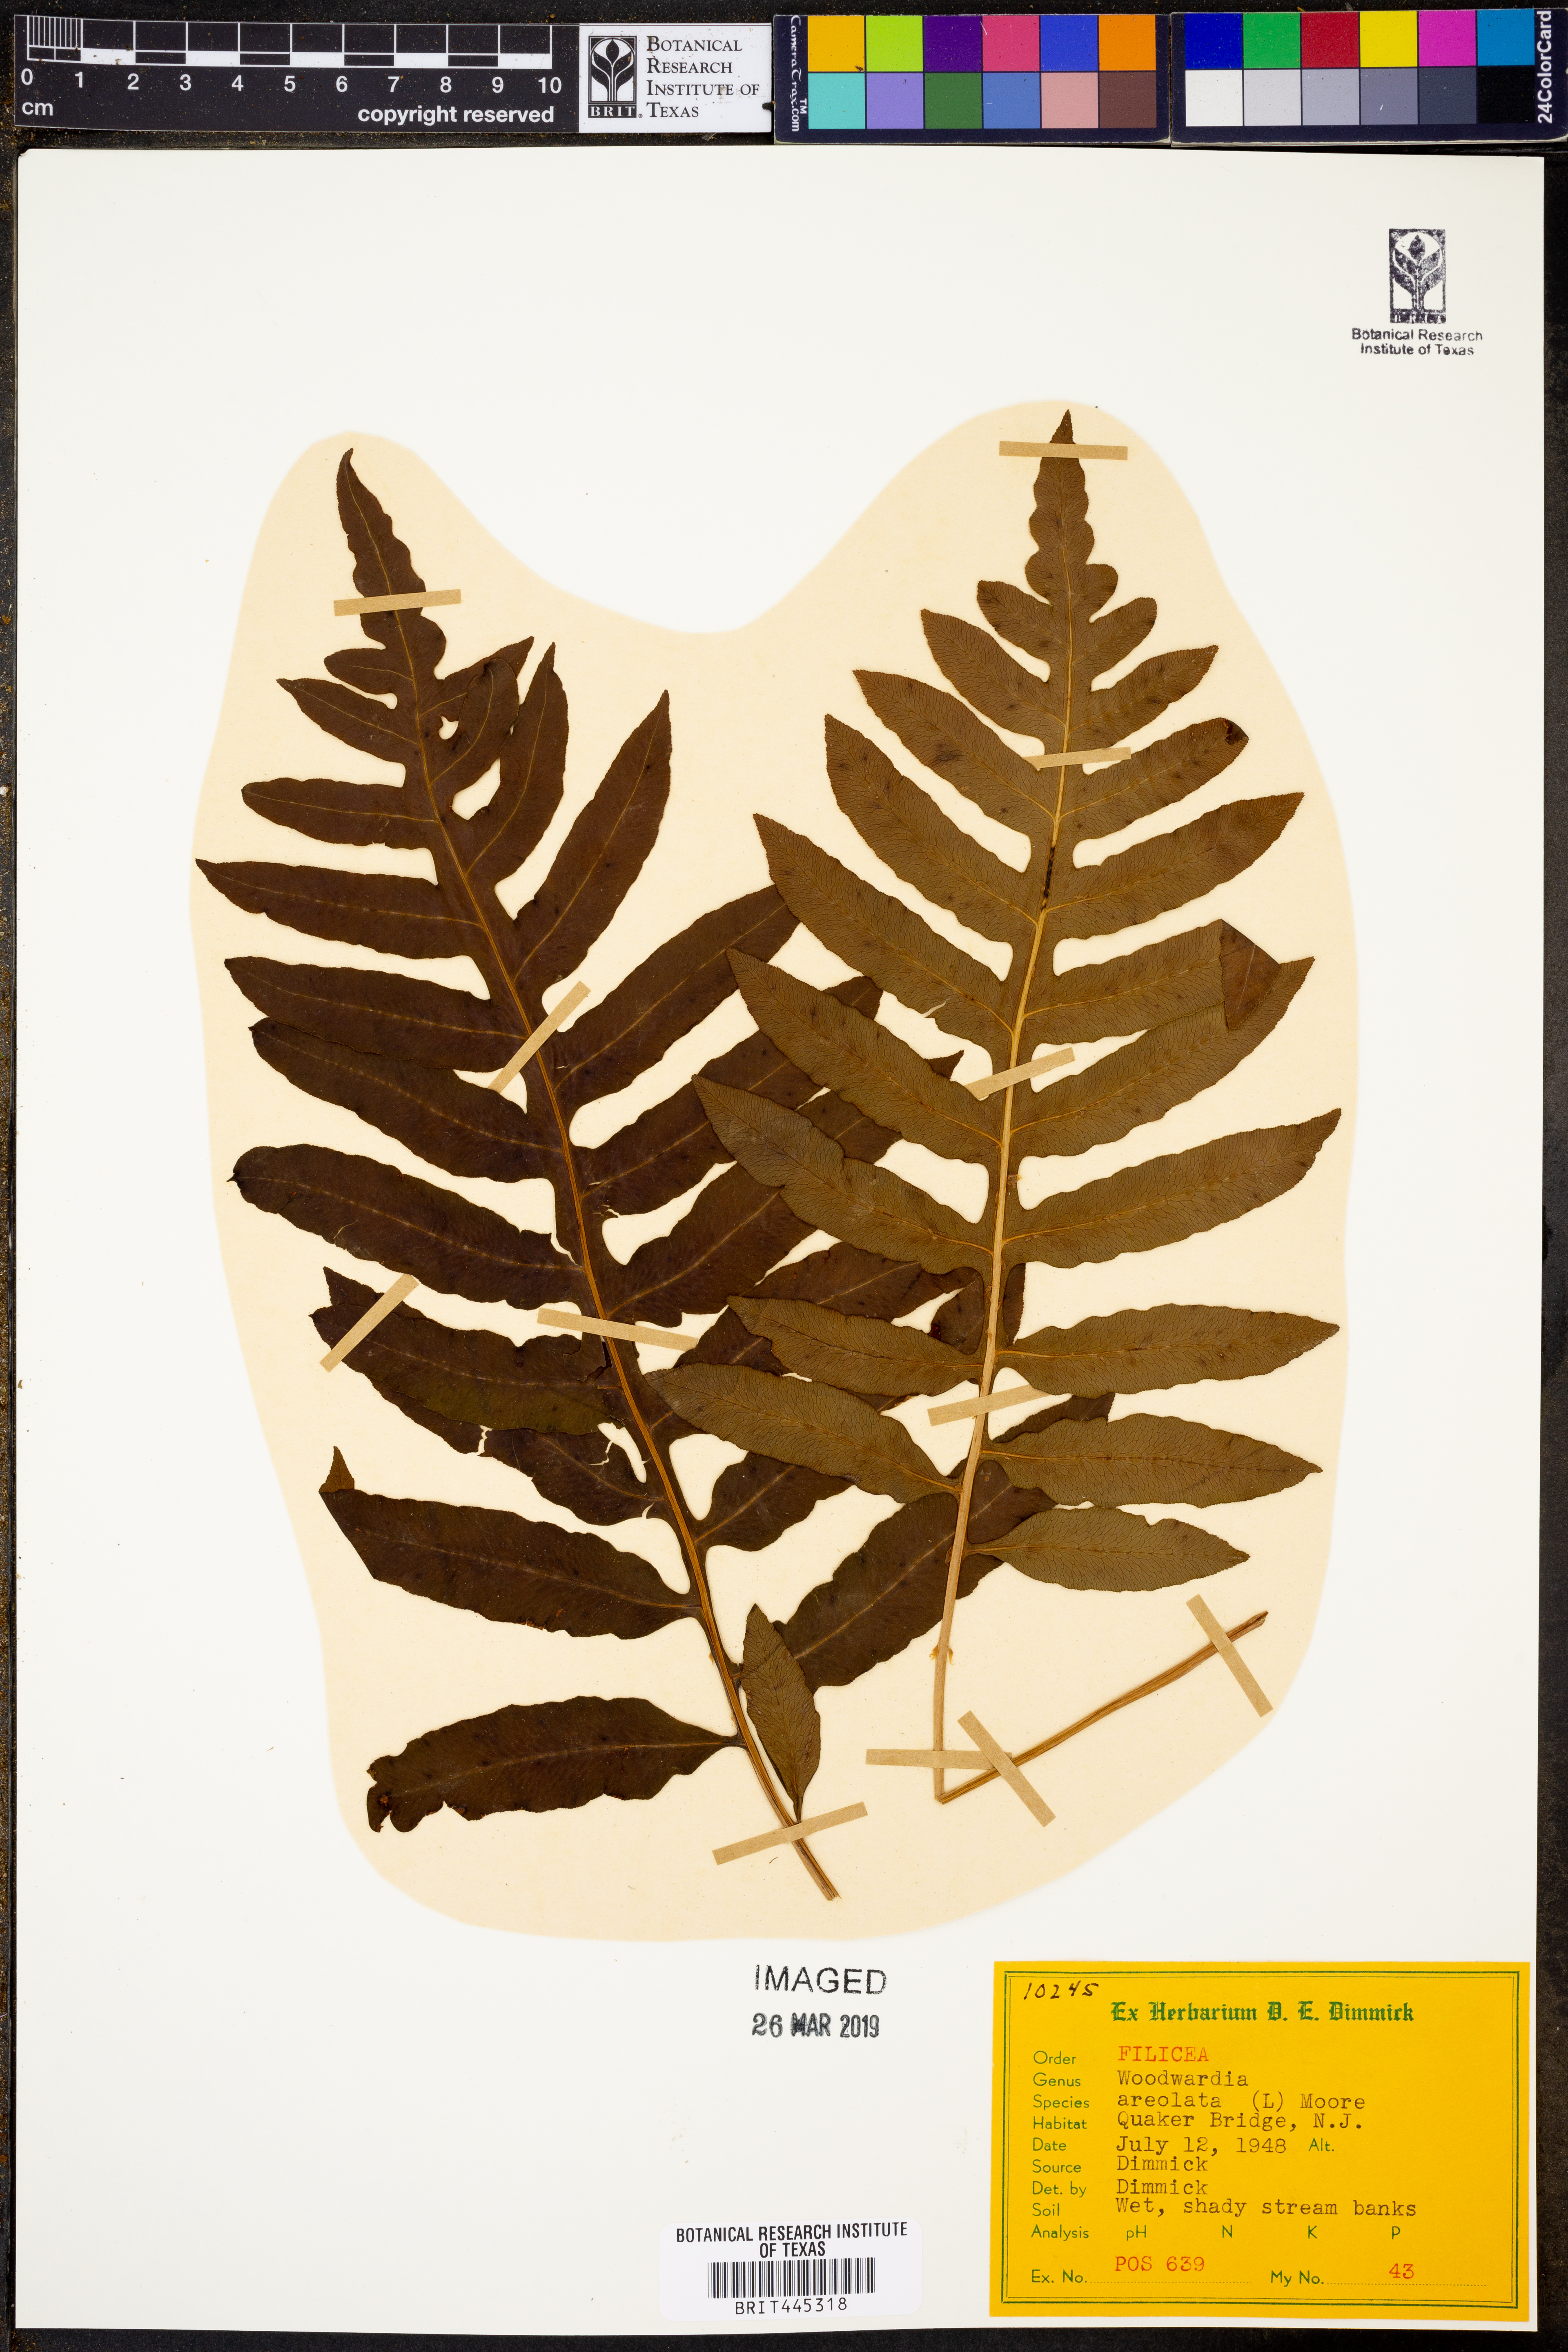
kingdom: Plantae
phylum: Tracheophyta
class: Polypodiopsida
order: Polypodiales
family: Blechnaceae
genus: Lorinseria
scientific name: Lorinseria areolata
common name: Dwarf chain fern
